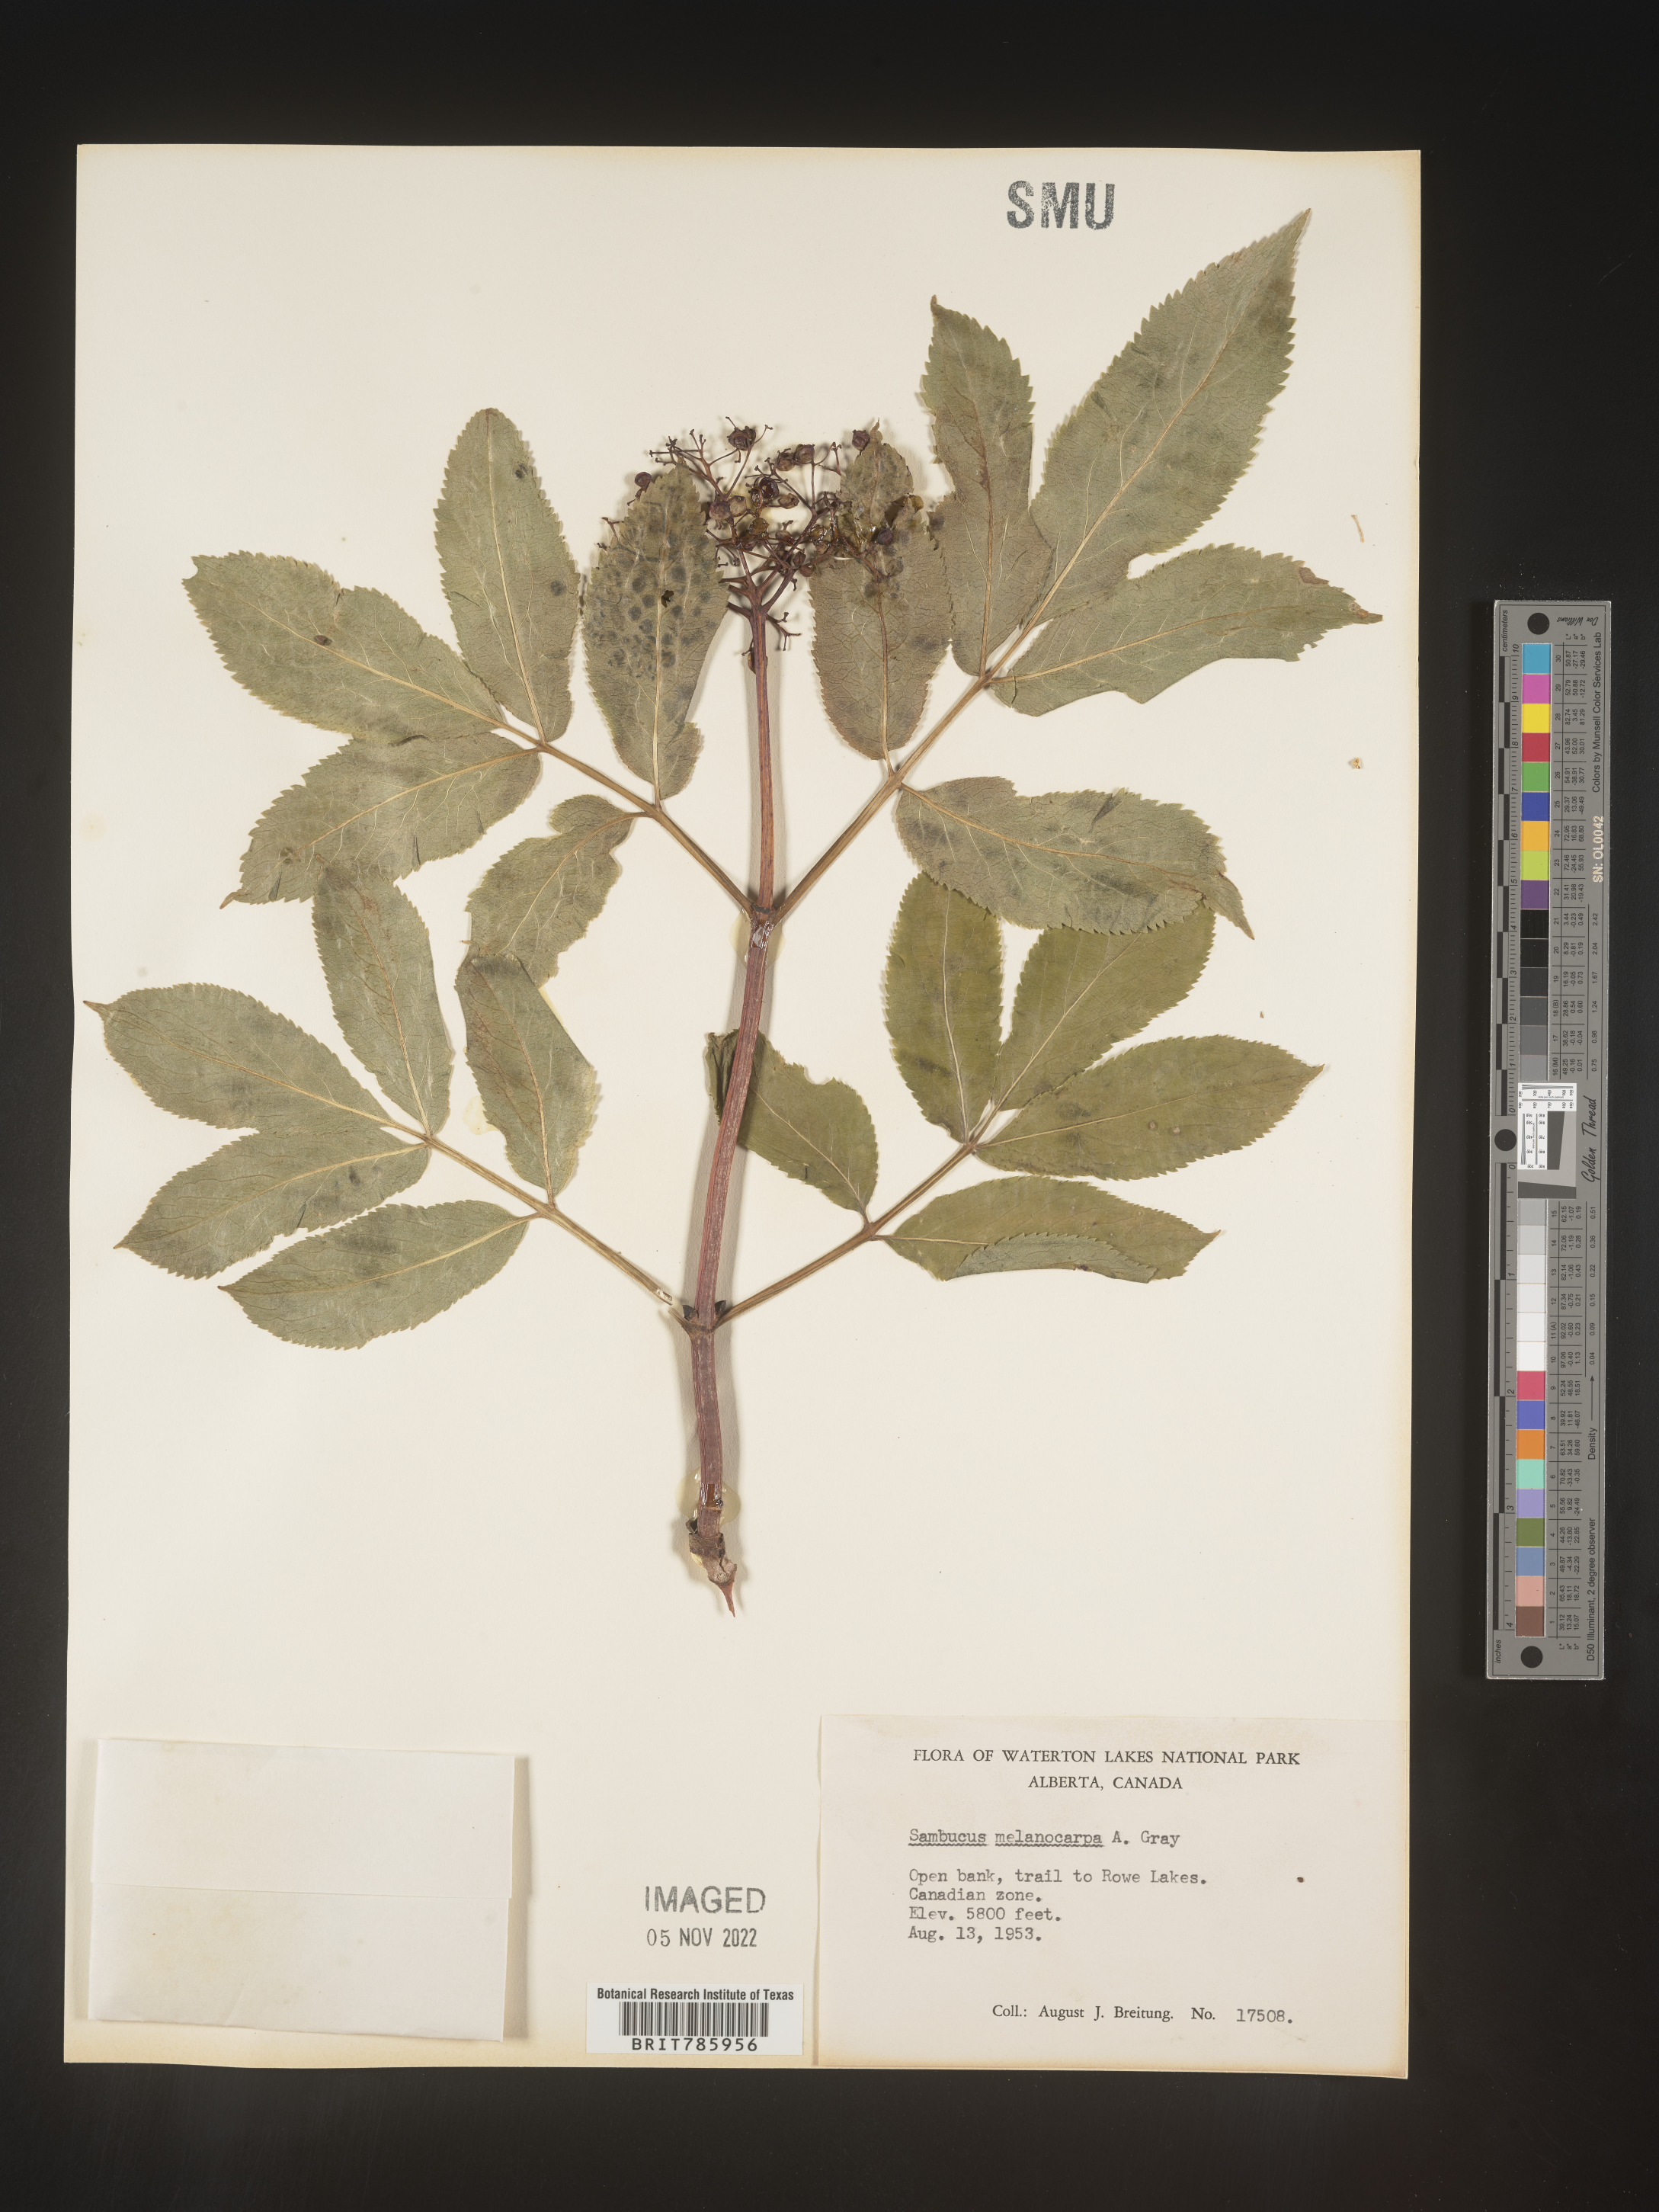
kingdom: Plantae
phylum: Tracheophyta
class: Magnoliopsida
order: Dipsacales
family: Viburnaceae
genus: Sambucus
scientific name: Sambucus racemosa
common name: Red-berried elder
